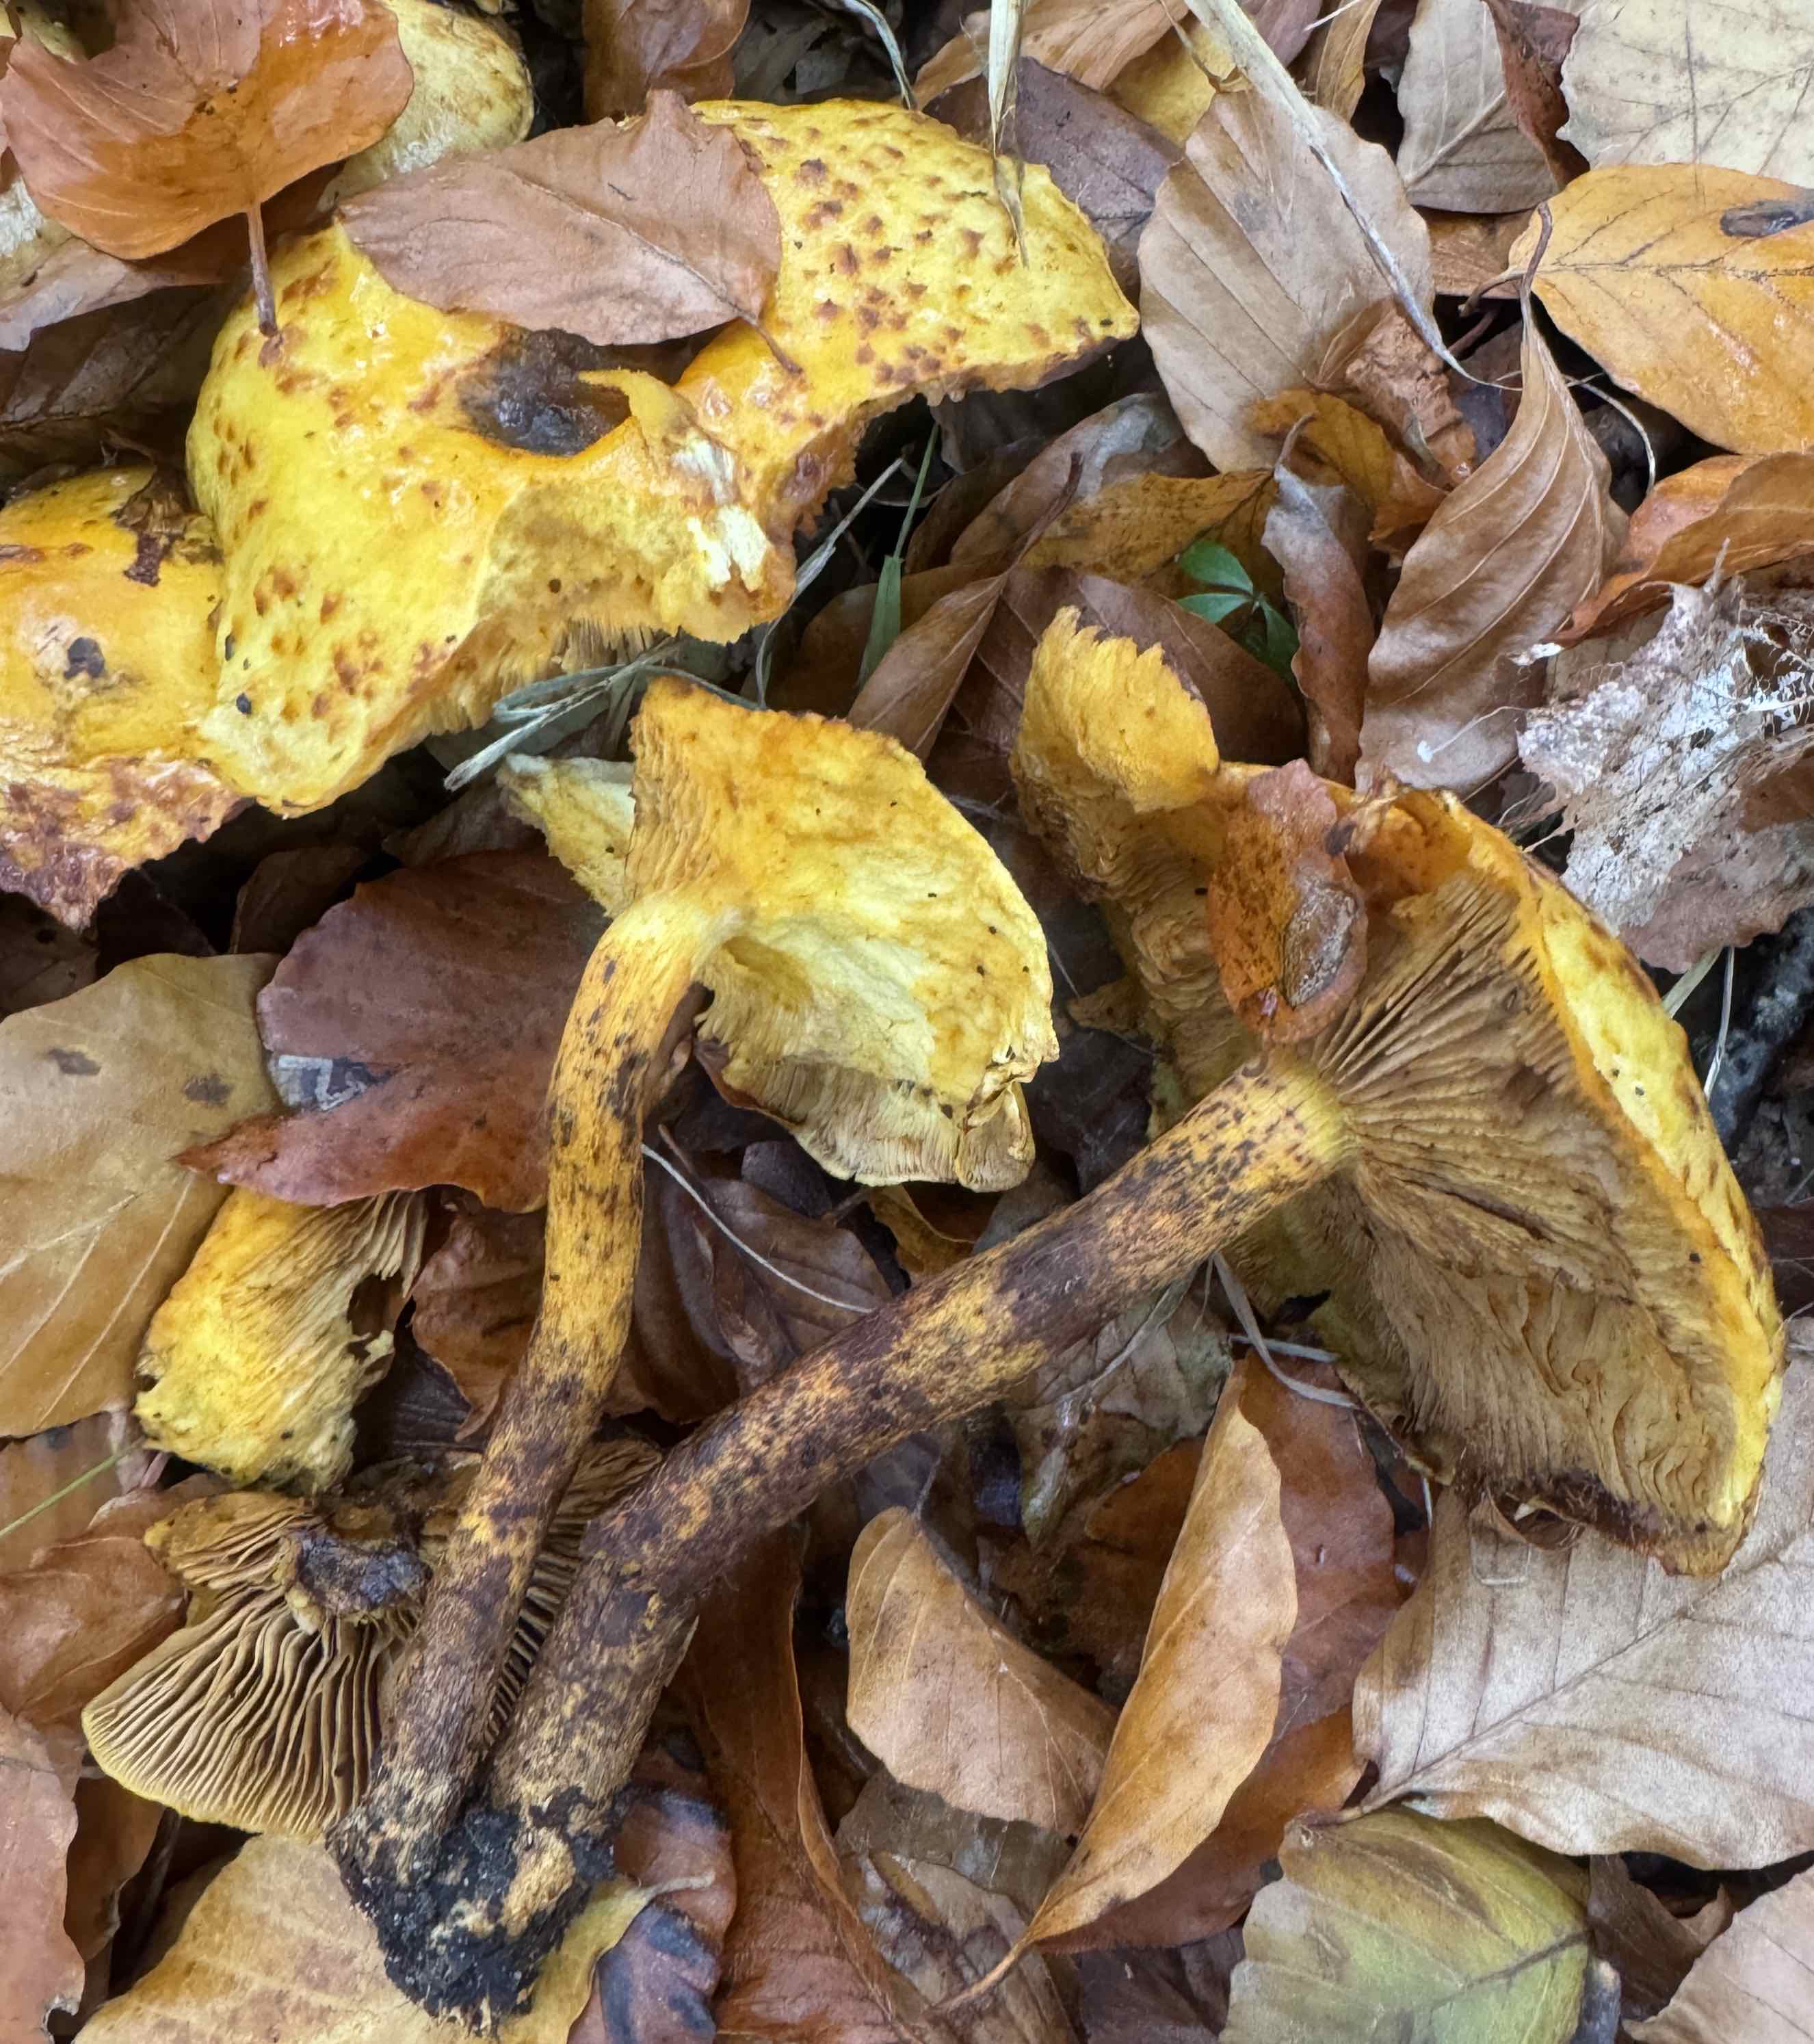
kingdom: Fungi
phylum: Basidiomycota
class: Agaricomycetes
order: Agaricales
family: Strophariaceae
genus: Pholiota
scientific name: Pholiota jahnii
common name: slimet skælhat
